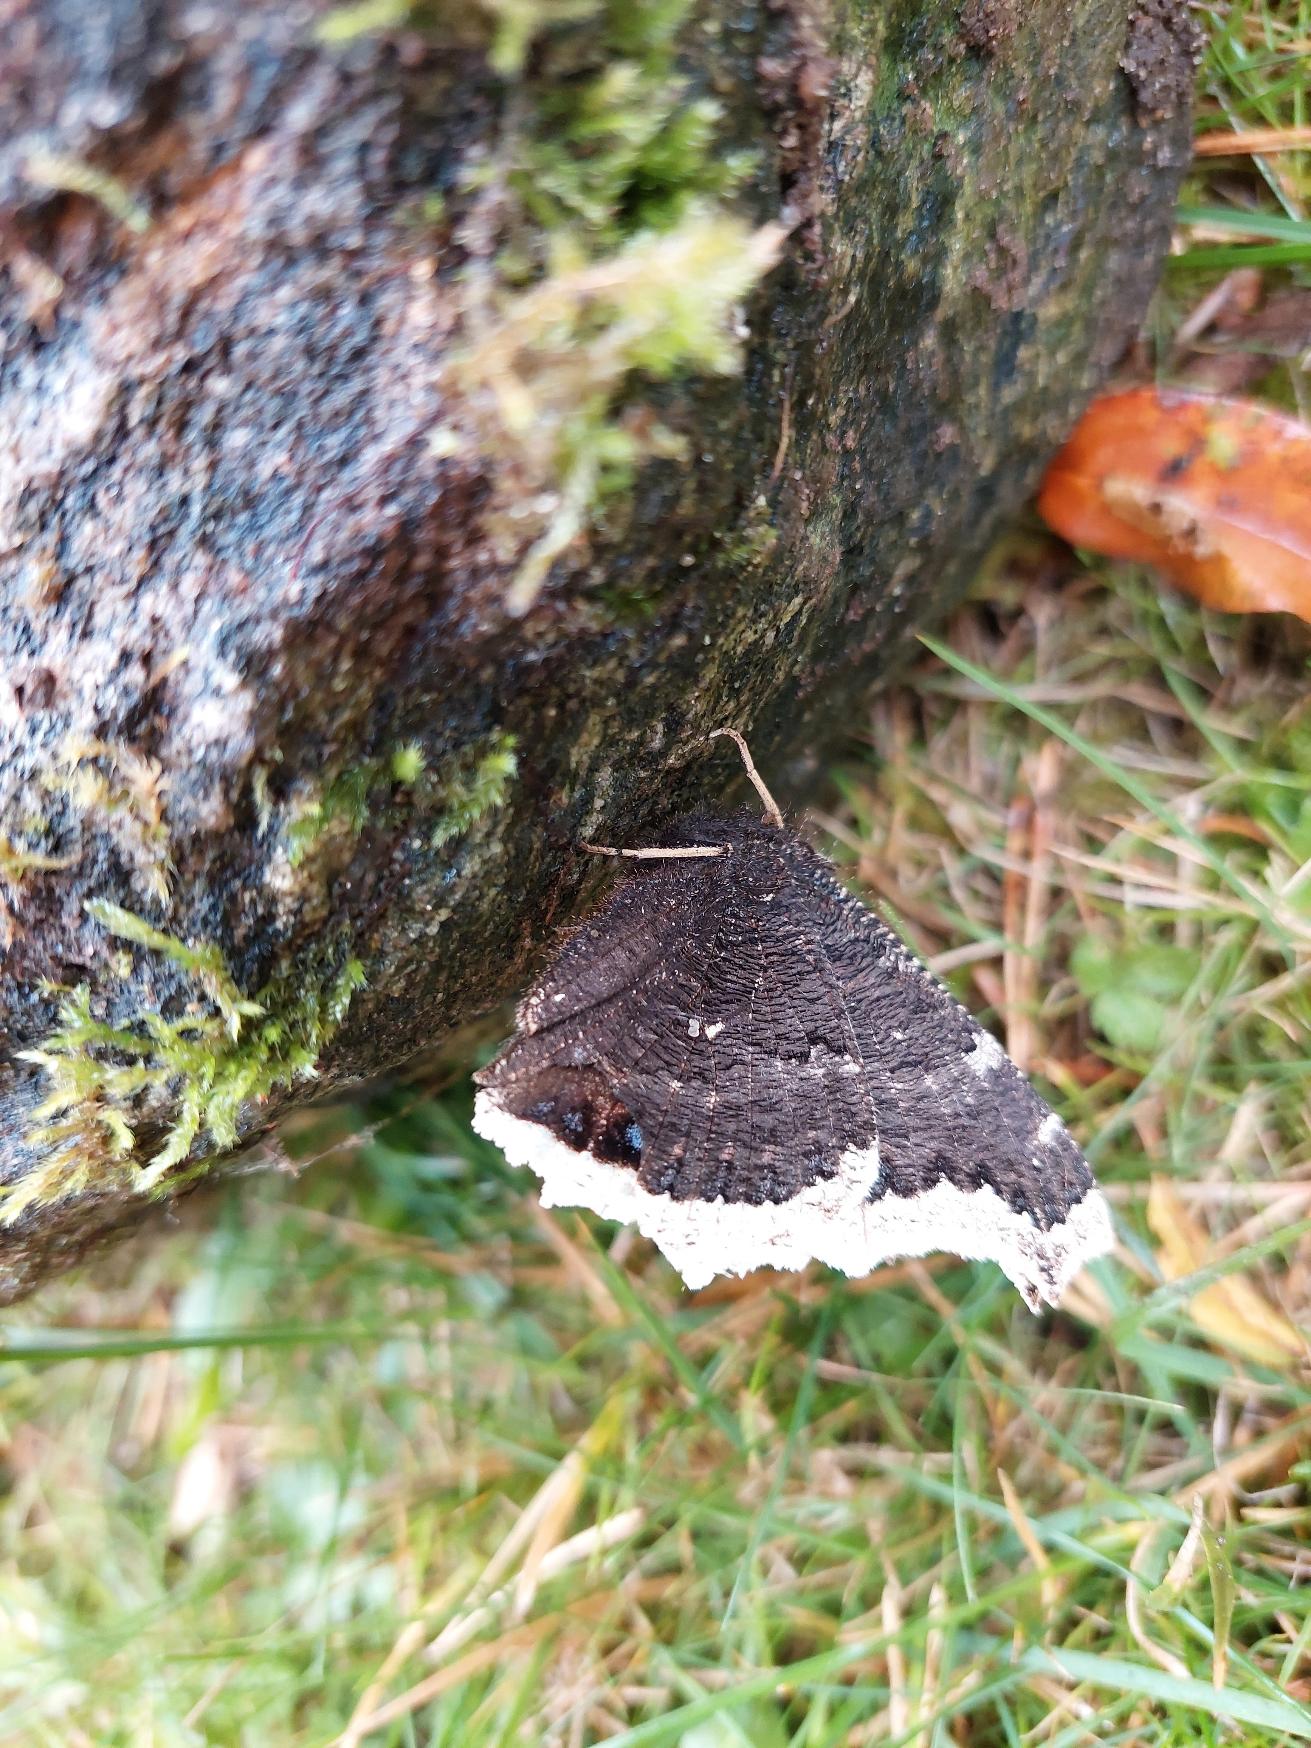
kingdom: Animalia
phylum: Arthropoda
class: Insecta
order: Lepidoptera
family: Nymphalidae
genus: Nymphalis
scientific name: Nymphalis antiopa
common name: Sørgekåbe
